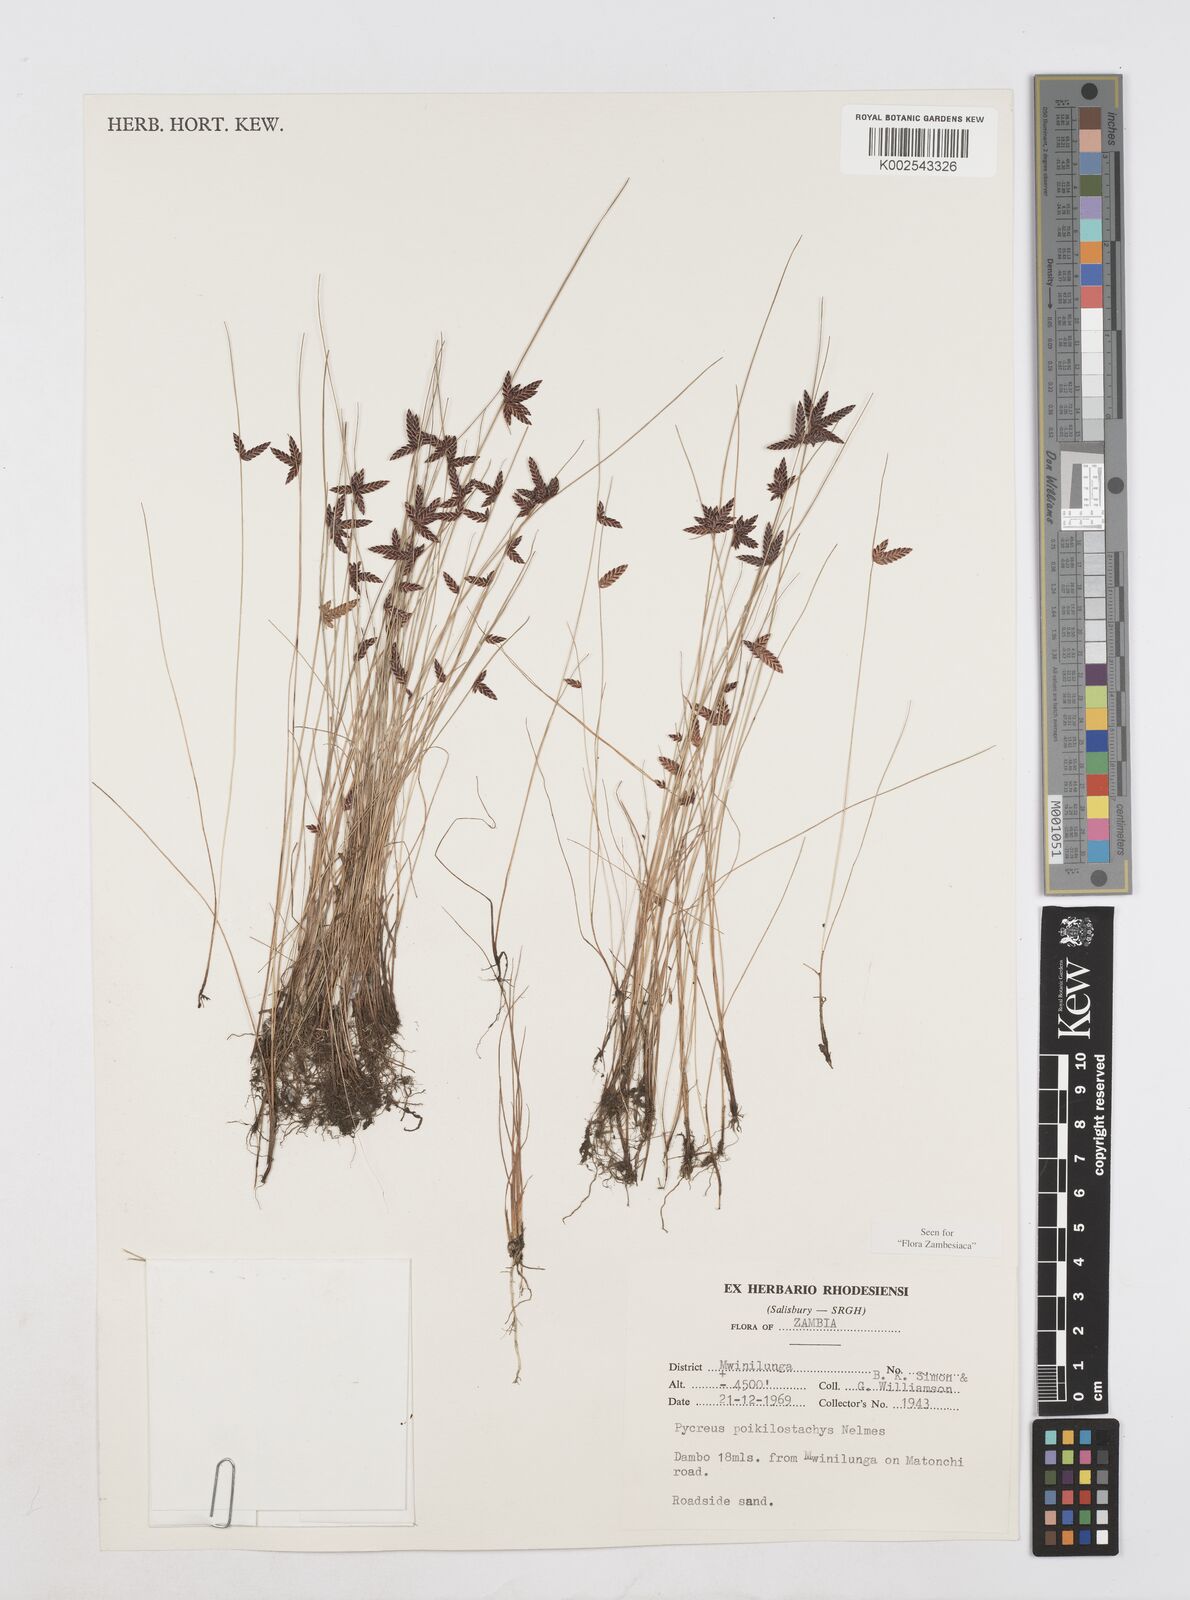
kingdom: Plantae
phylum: Tracheophyta
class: Liliopsida
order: Poales
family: Cyperaceae
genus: Cyperus
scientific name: Cyperus poikilostachys
